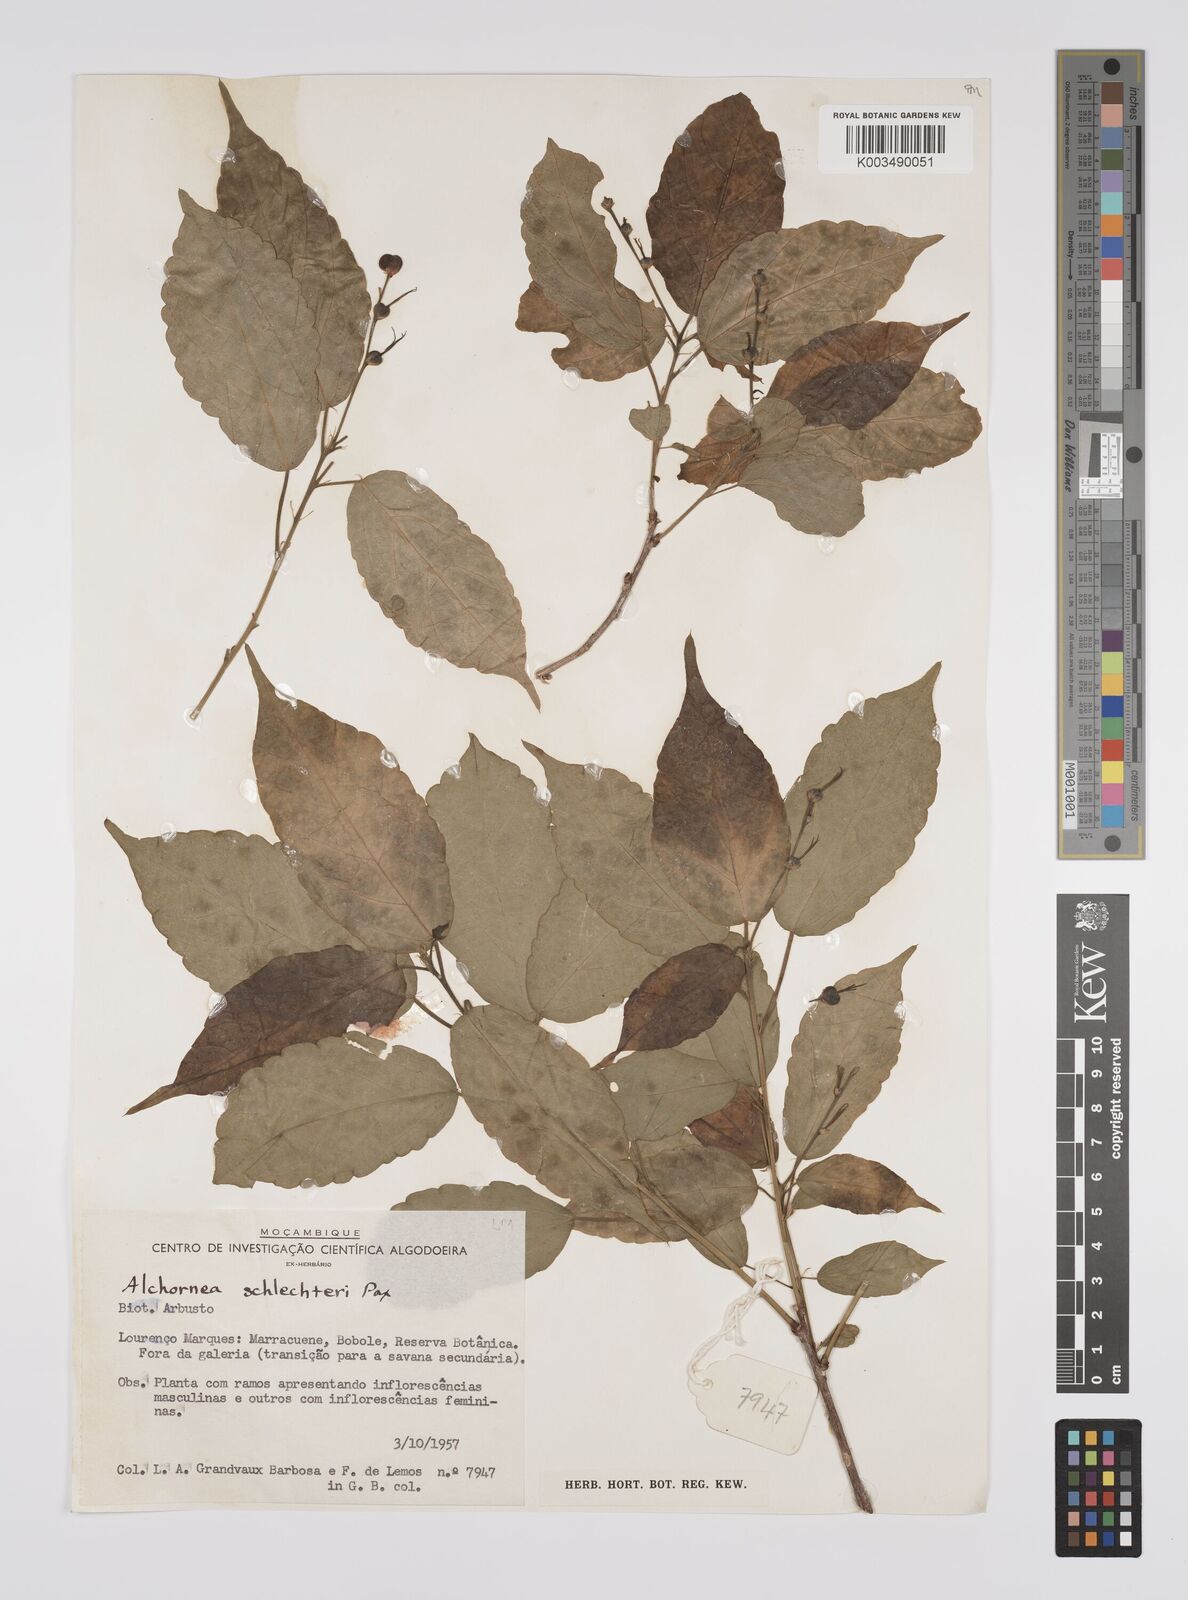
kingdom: Plantae
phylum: Tracheophyta
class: Magnoliopsida
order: Malpighiales
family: Euphorbiaceae
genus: Alchornea
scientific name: Alchornea laxiflora
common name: Lowveld bead-string
